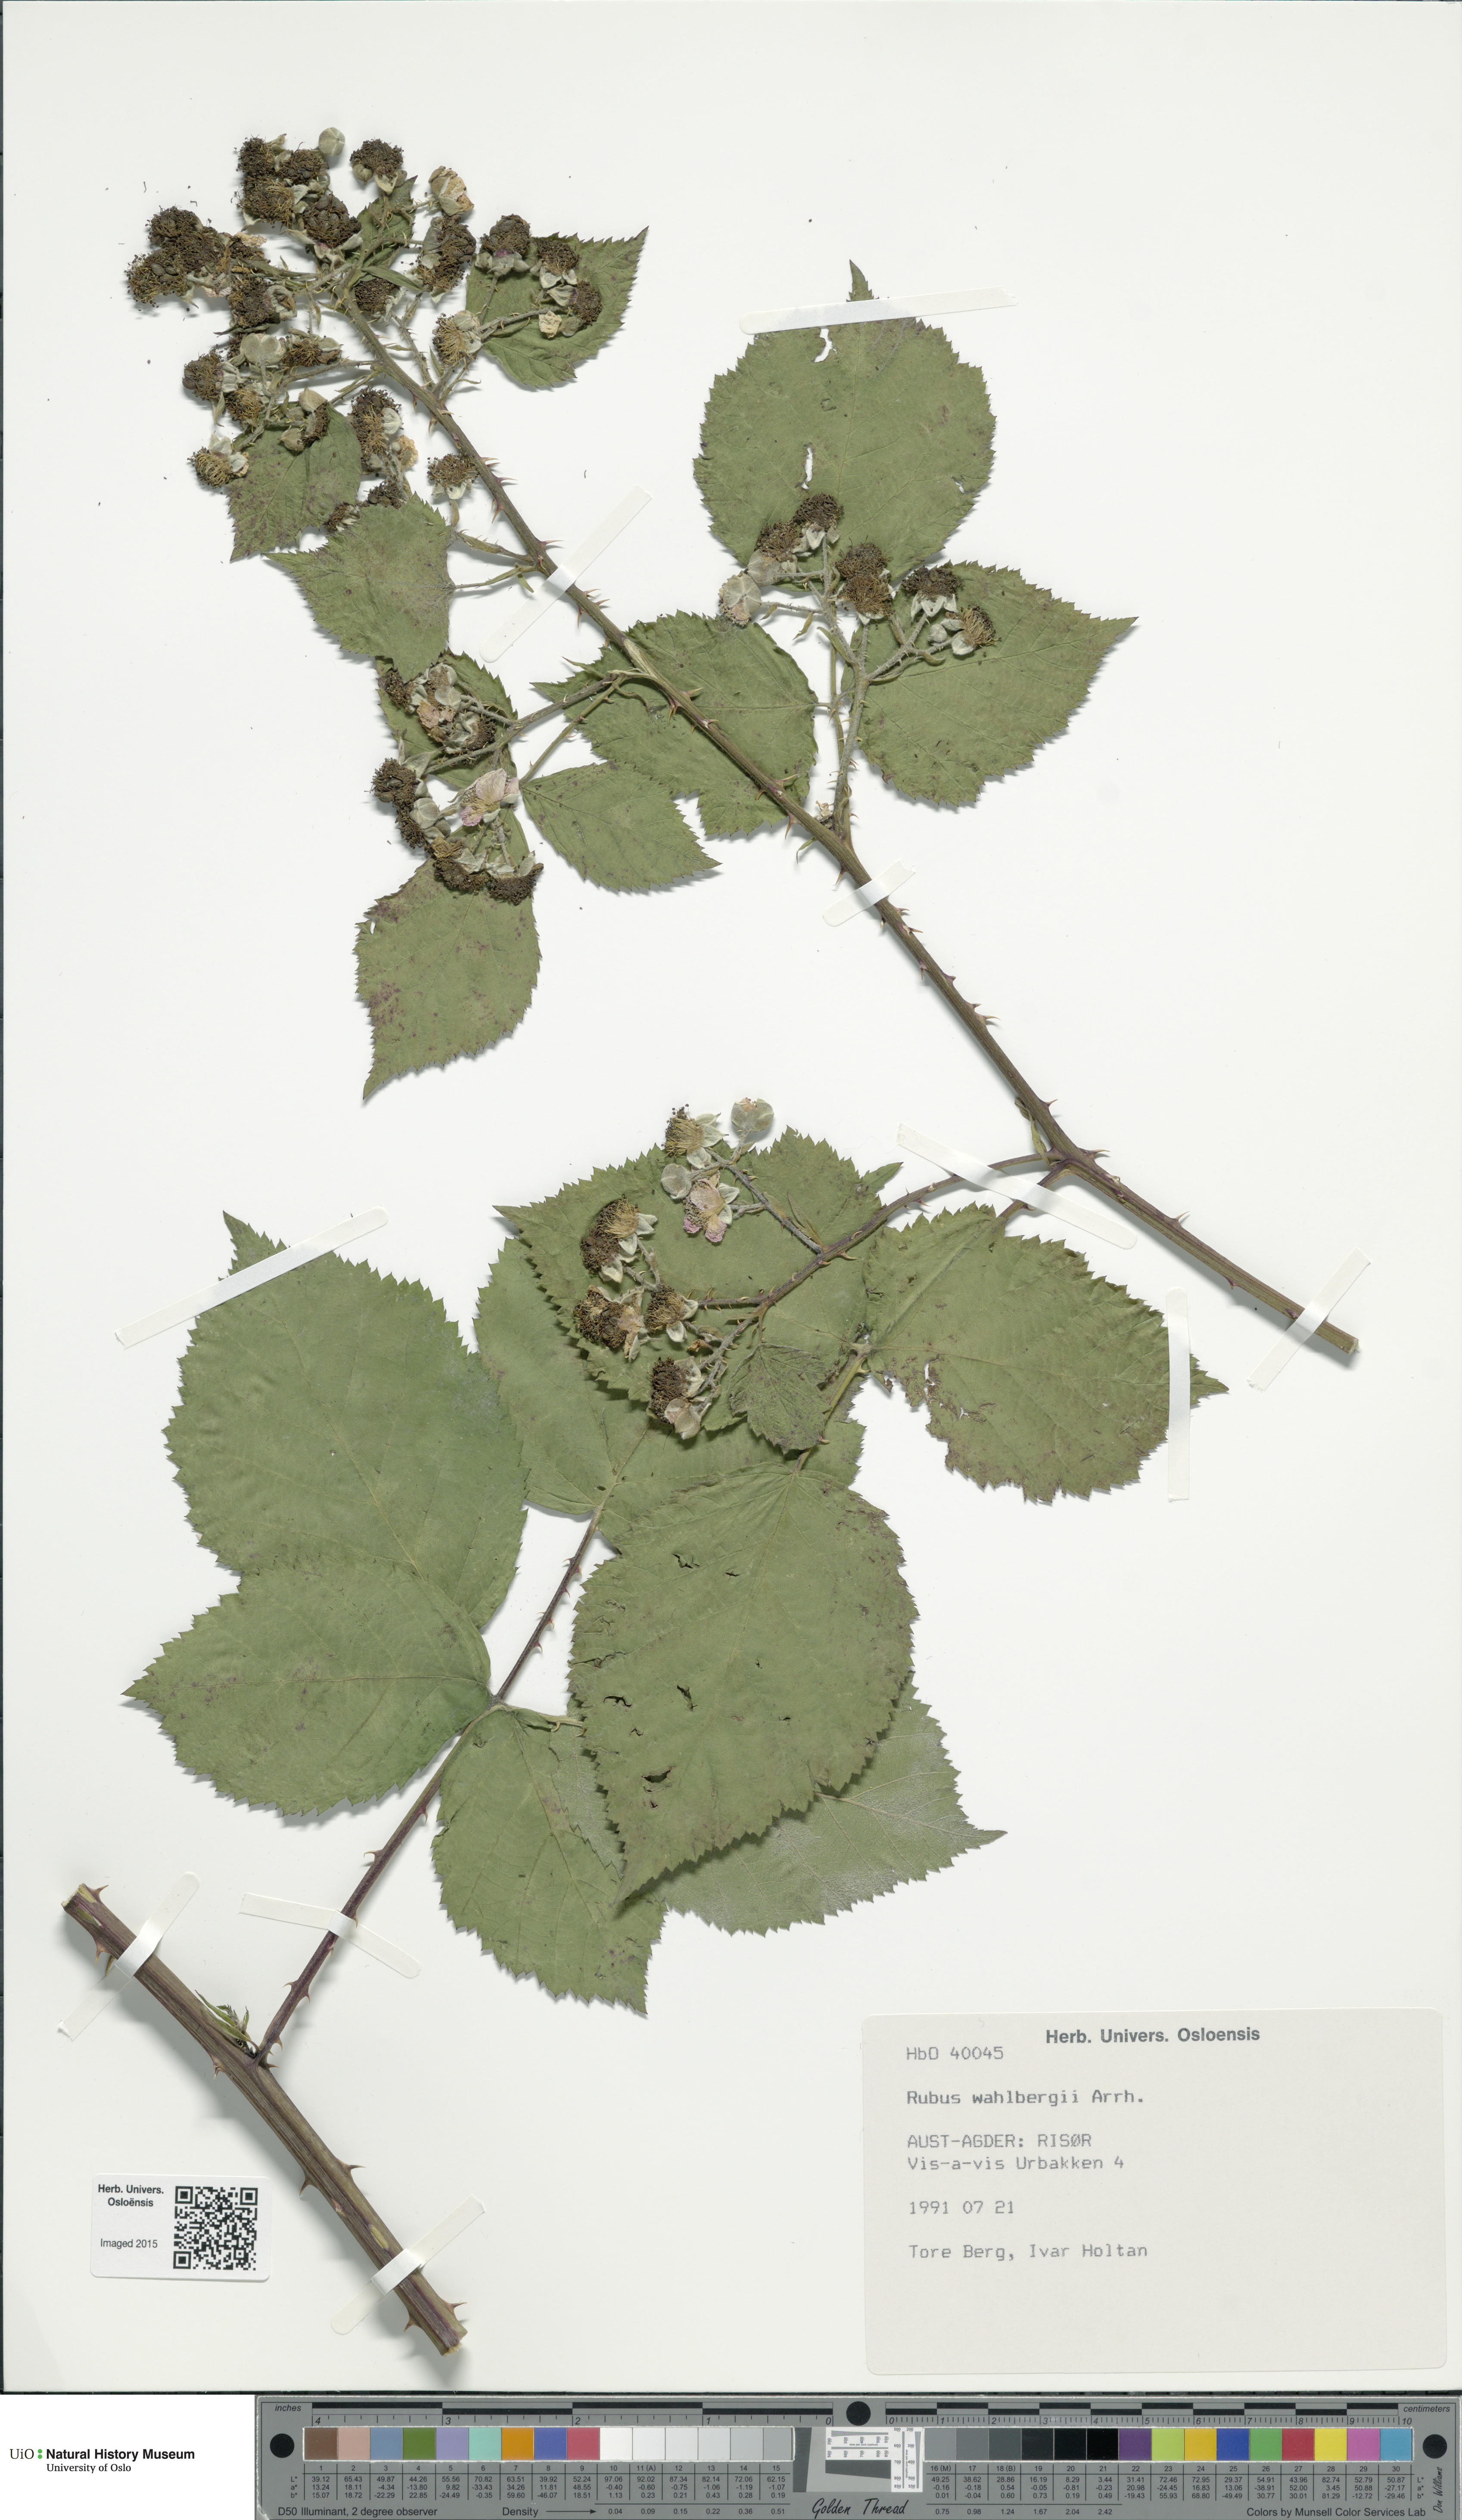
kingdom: Plantae
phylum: Tracheophyta
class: Magnoliopsida
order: Rosales
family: Rosaceae
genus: Rubus
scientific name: Rubus wahlbergii
